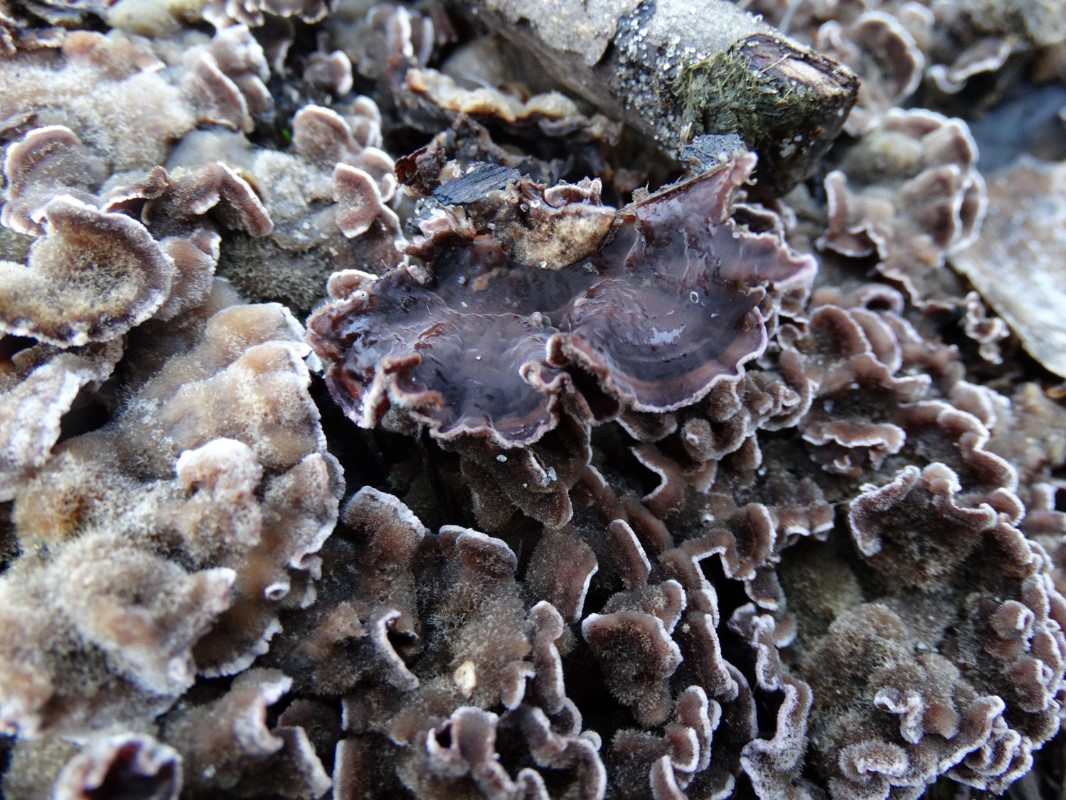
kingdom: Fungi
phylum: Basidiomycota
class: Agaricomycetes
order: Agaricales
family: Cyphellaceae
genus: Chondrostereum
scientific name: Chondrostereum purpureum
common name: purpurlædersvamp
